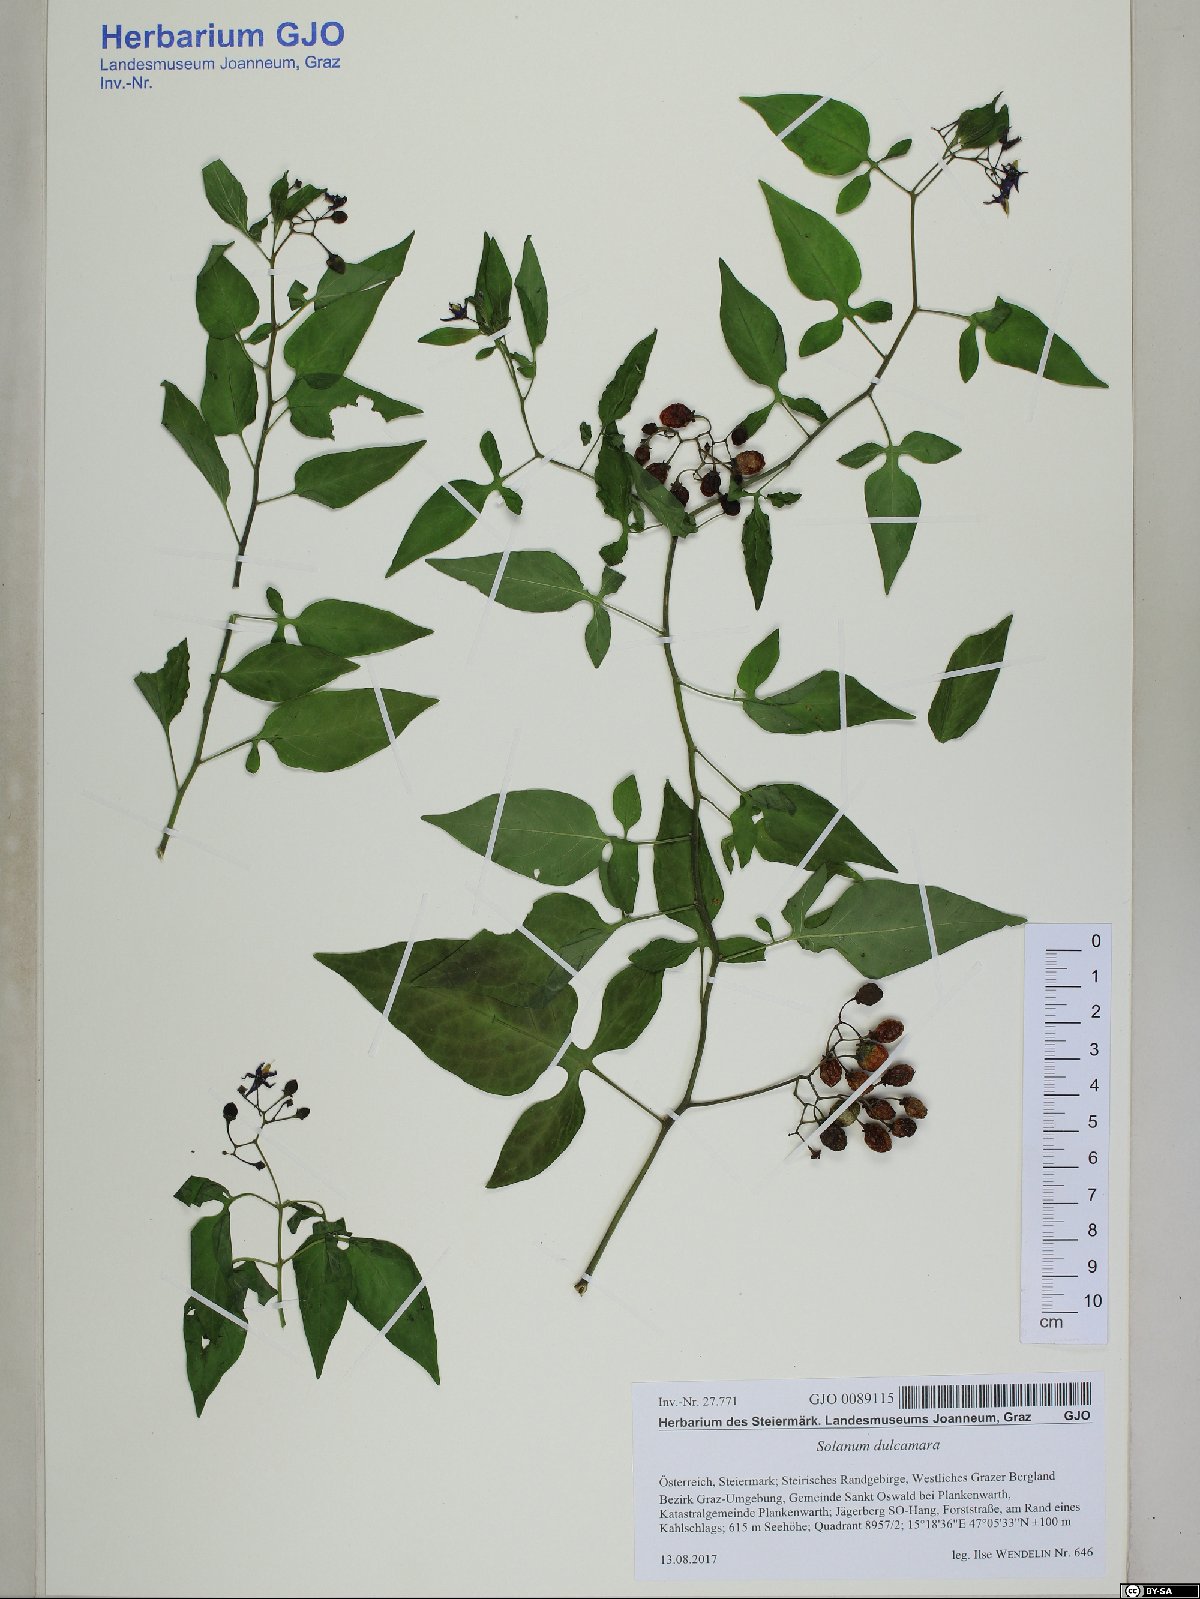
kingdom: Plantae
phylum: Tracheophyta
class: Magnoliopsida
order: Solanales
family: Solanaceae
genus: Solanum
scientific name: Solanum dulcamara
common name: Climbing nightshade
